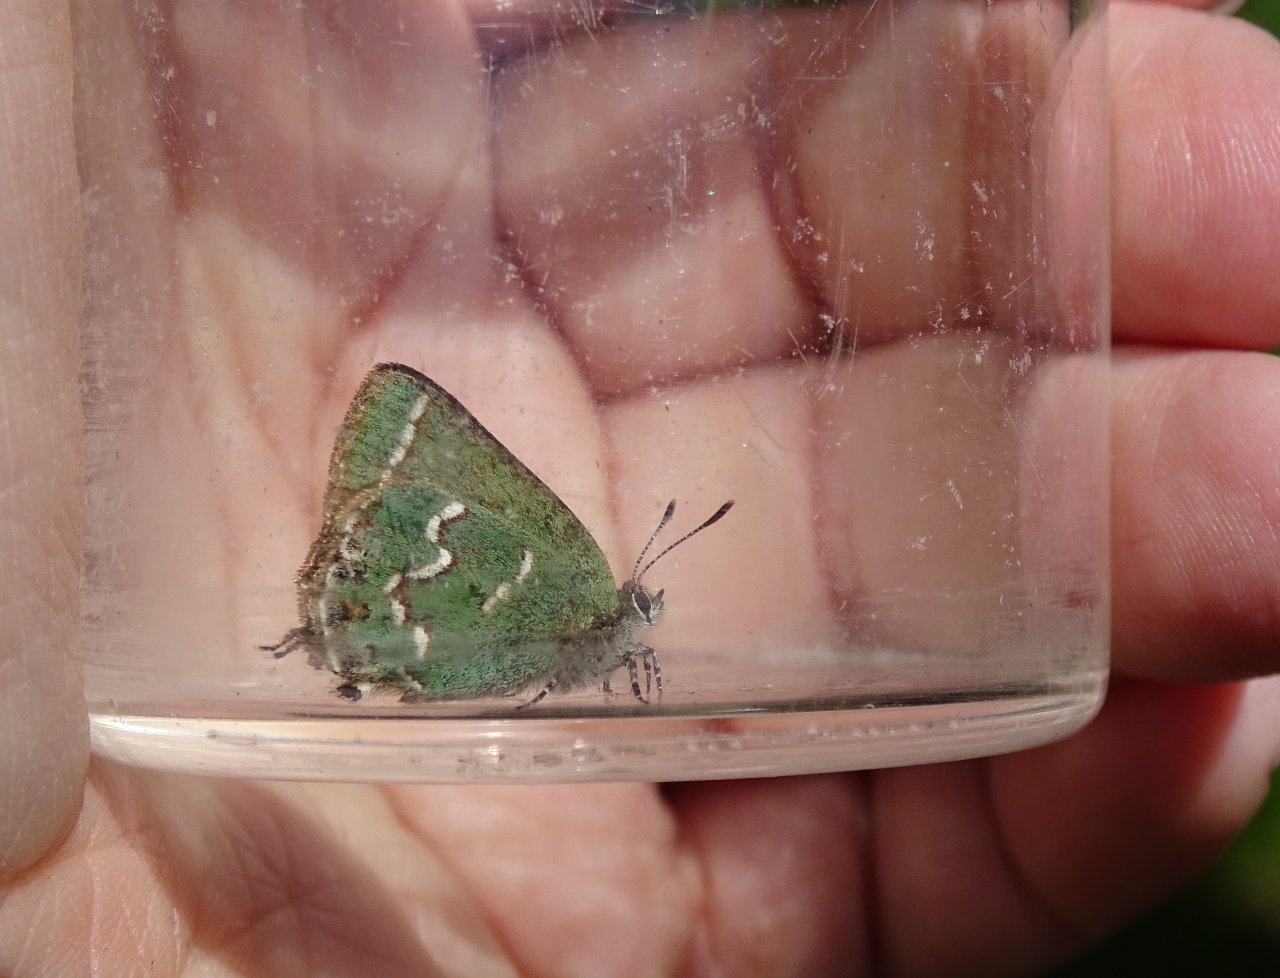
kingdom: Animalia
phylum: Arthropoda
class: Insecta
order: Lepidoptera
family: Lycaenidae
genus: Mitoura
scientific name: Mitoura gryneus
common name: Juniper Hairstreak
